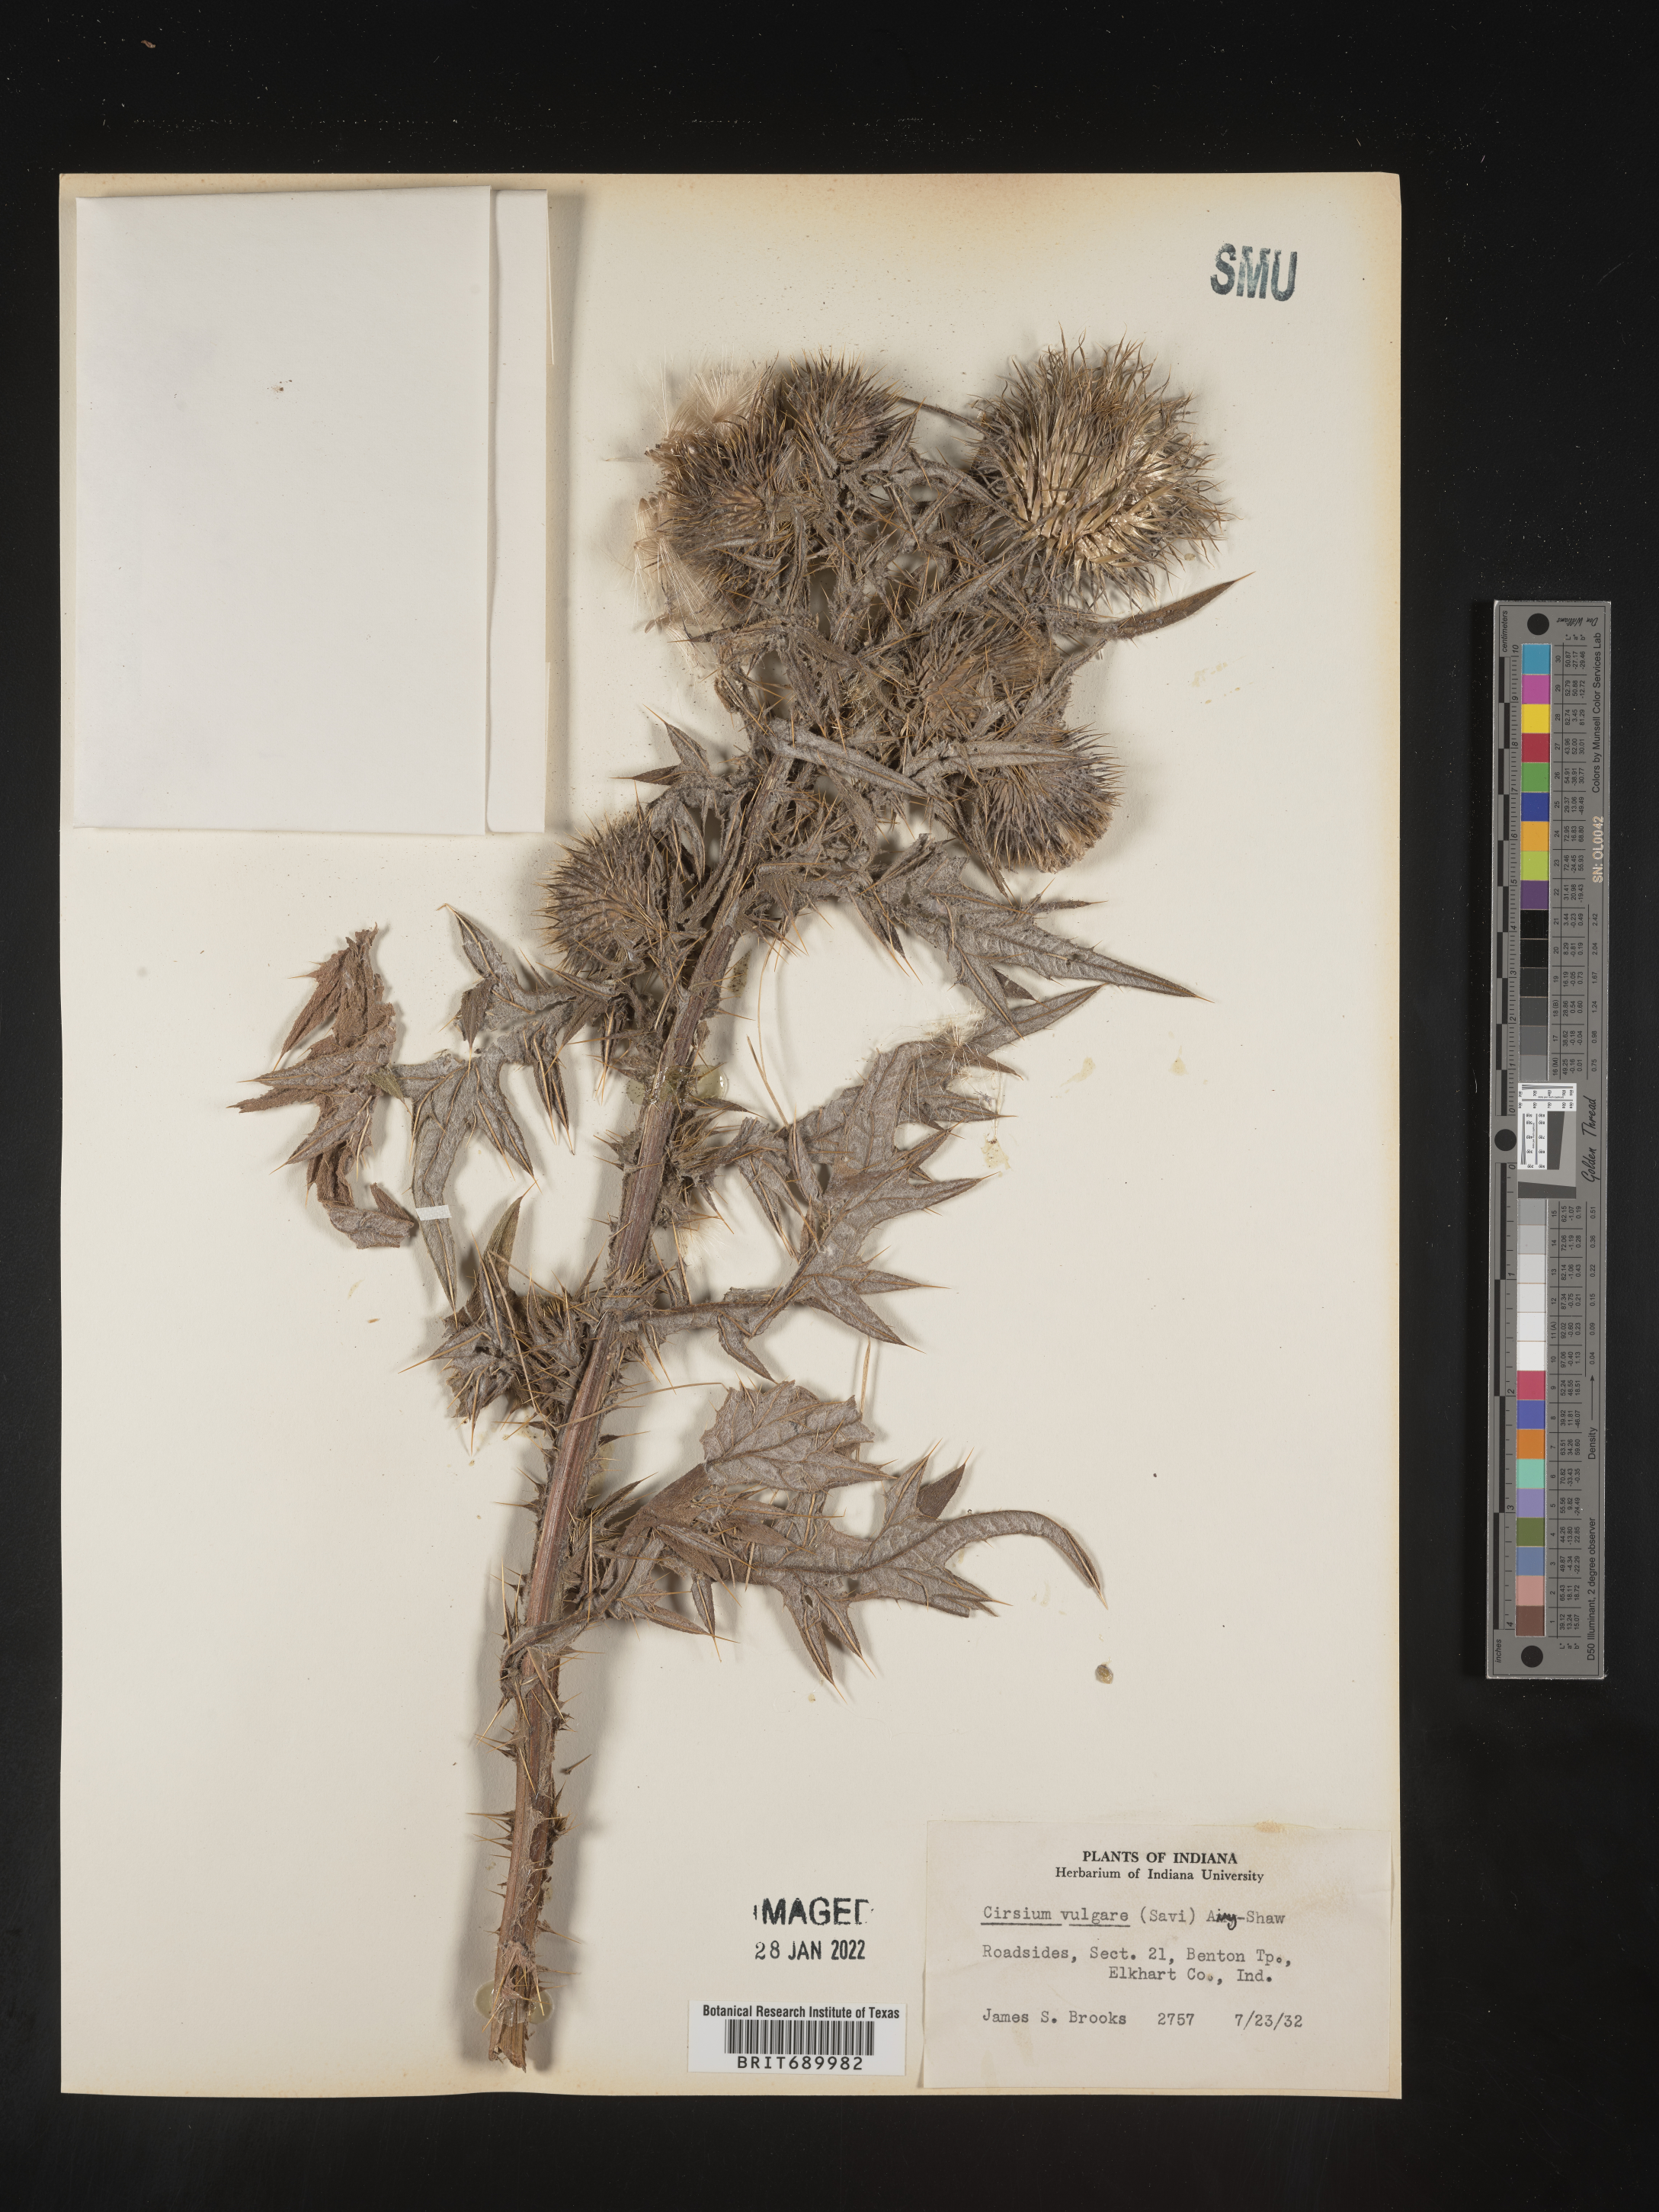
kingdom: Plantae
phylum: Tracheophyta
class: Magnoliopsida
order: Asterales
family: Asteraceae
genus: Cirsium
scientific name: Cirsium vulgare
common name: Bull thistle
